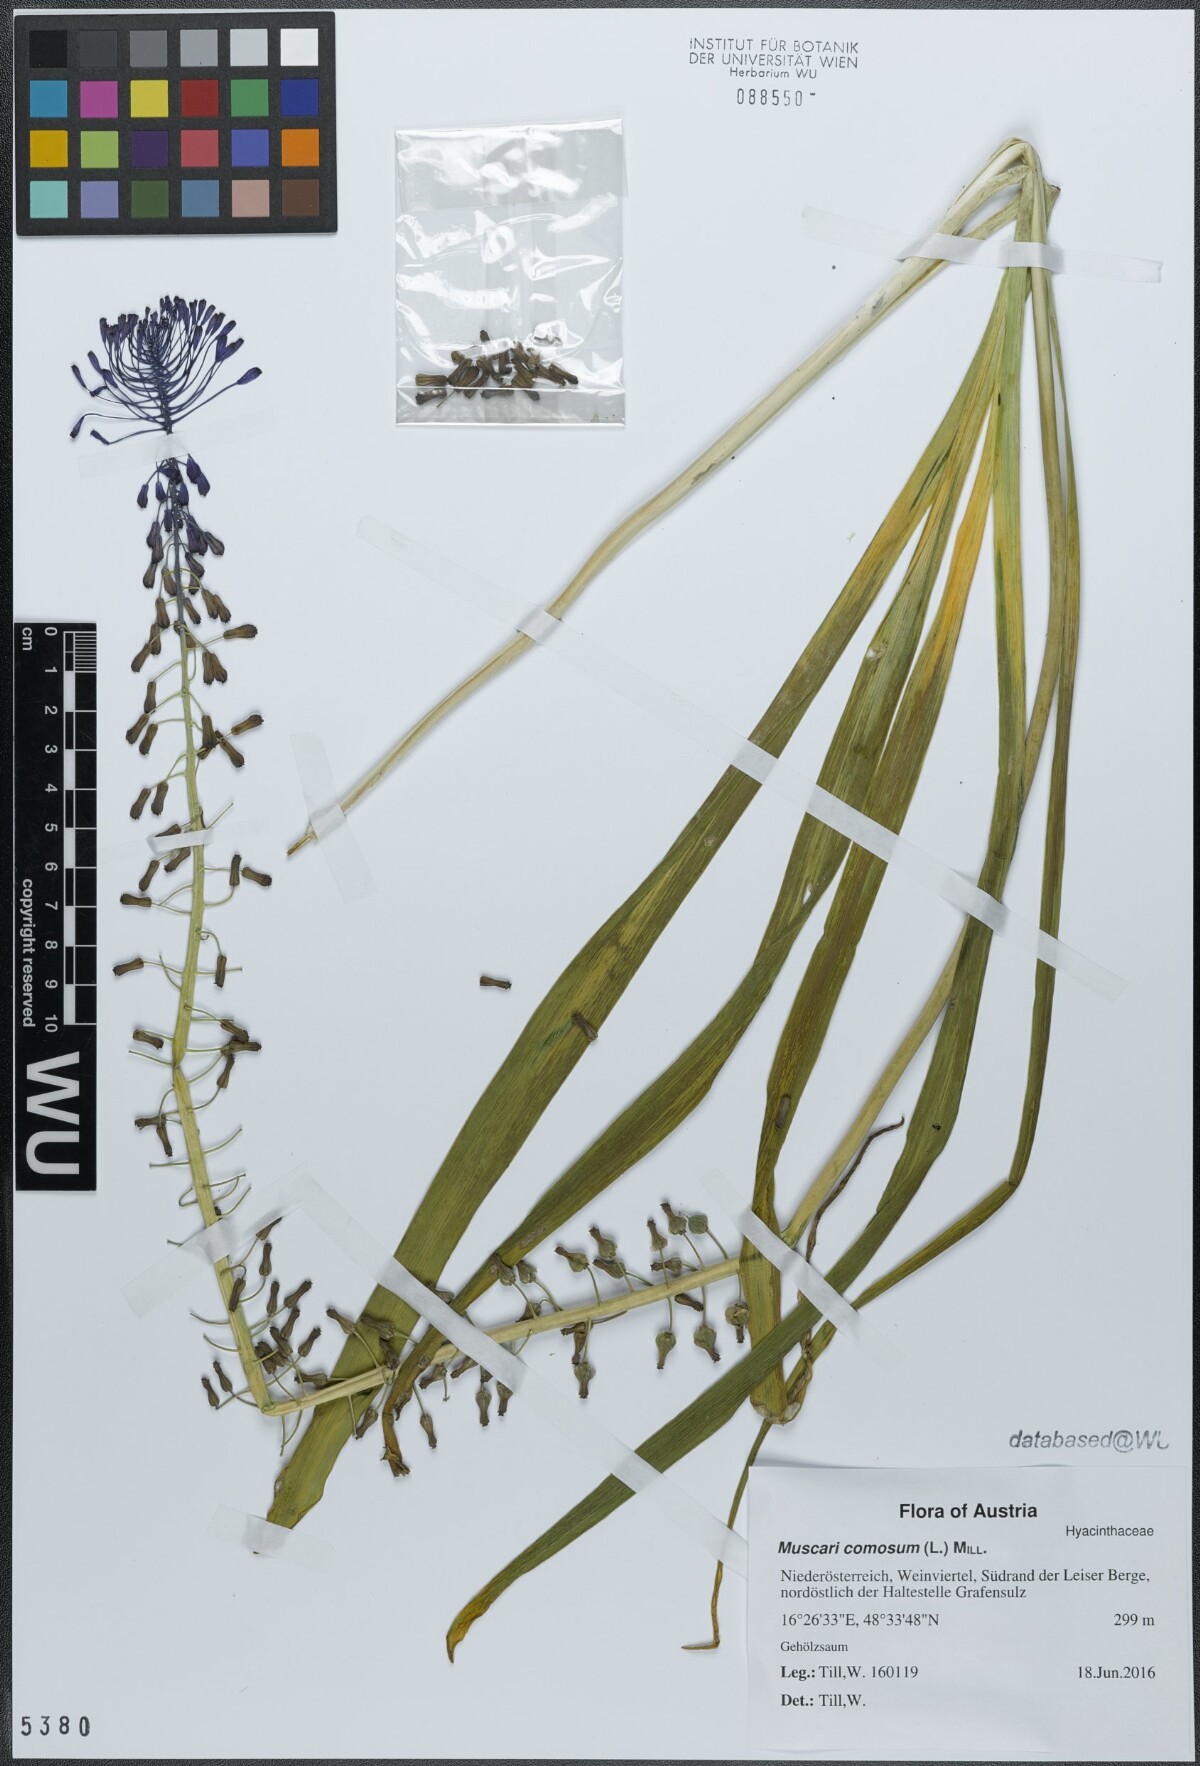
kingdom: Plantae
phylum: Tracheophyta
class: Liliopsida
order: Asparagales
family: Asparagaceae
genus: Muscari
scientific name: Muscari comosum
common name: Tassel hyacinth
